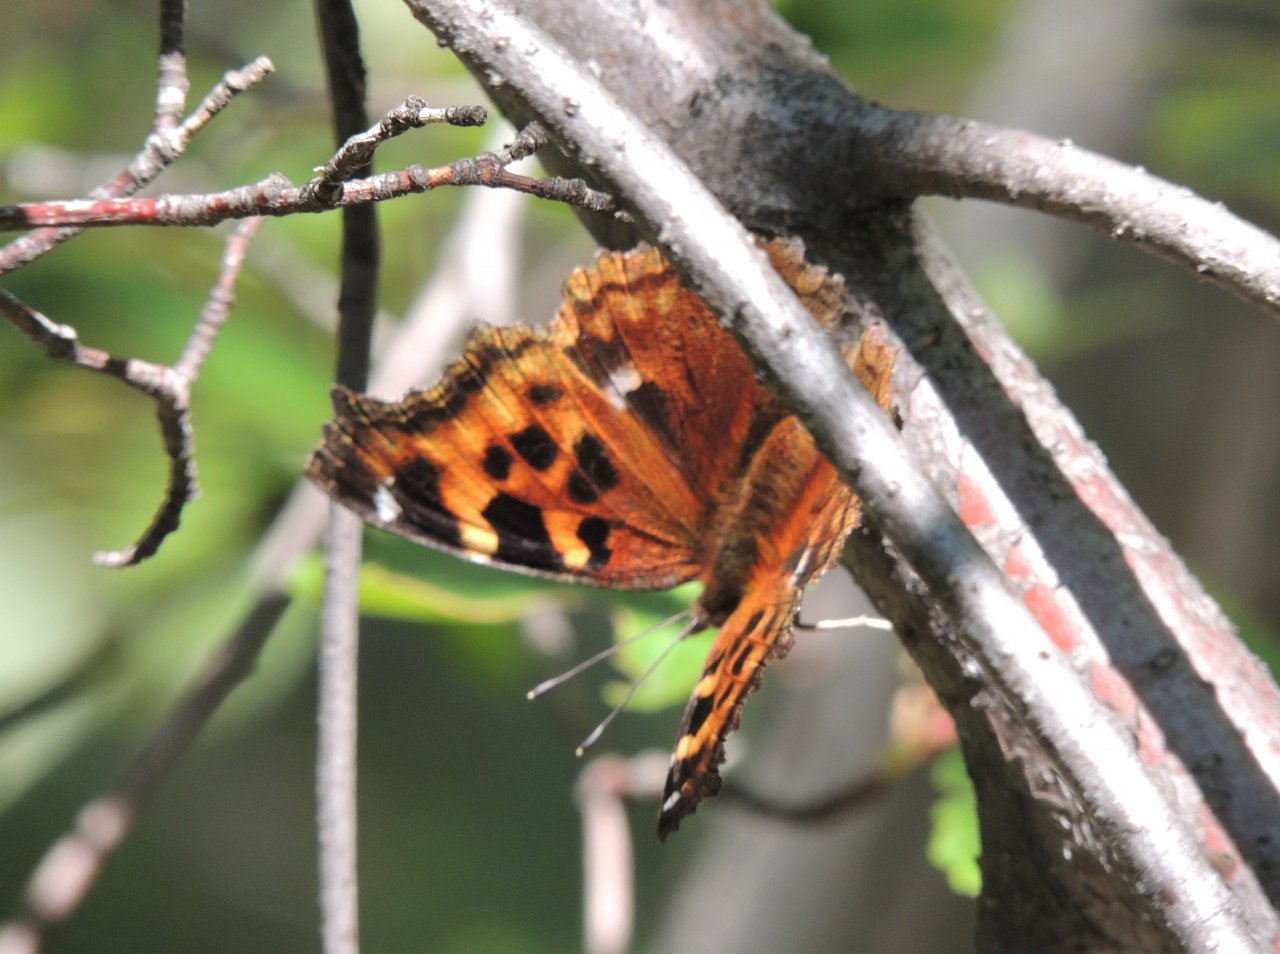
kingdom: Animalia
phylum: Arthropoda
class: Insecta
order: Lepidoptera
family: Nymphalidae
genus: Polygonia
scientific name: Polygonia vaualbum
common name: Compton Tortoiseshell
